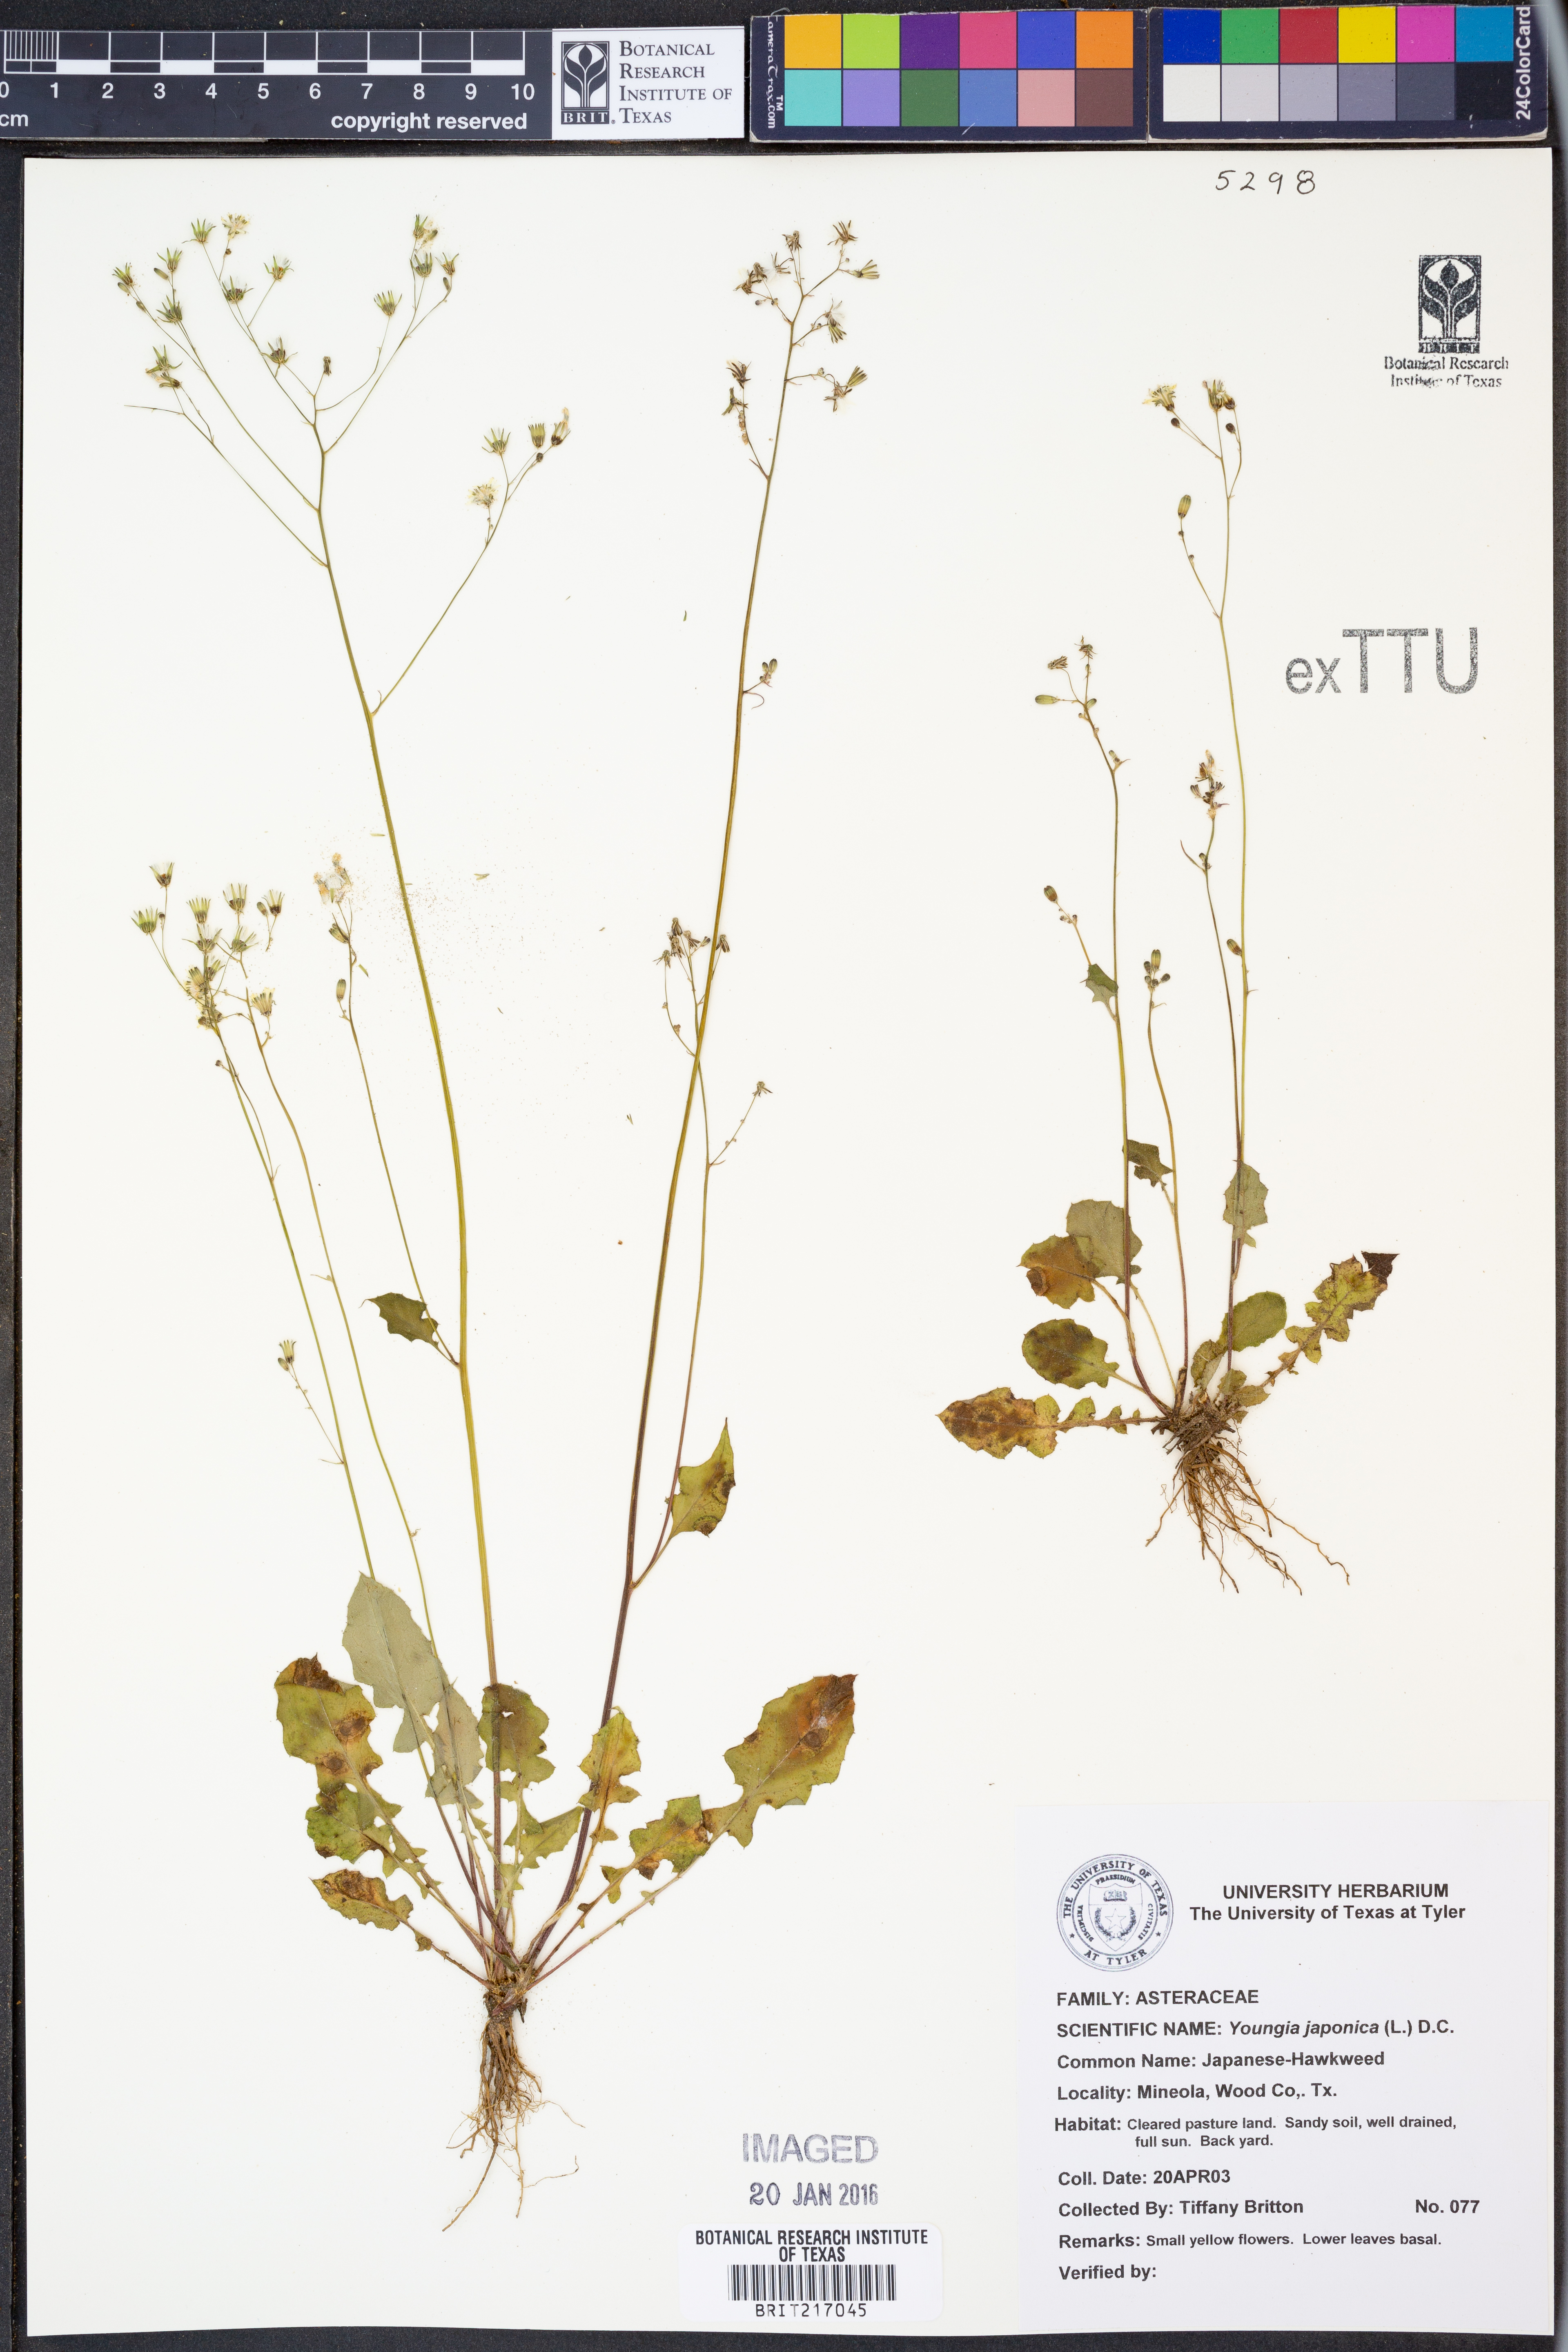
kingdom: Plantae
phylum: Tracheophyta
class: Magnoliopsida
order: Asterales
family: Asteraceae
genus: Youngia
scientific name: Youngia japonica
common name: Oriental false hawksbeard
